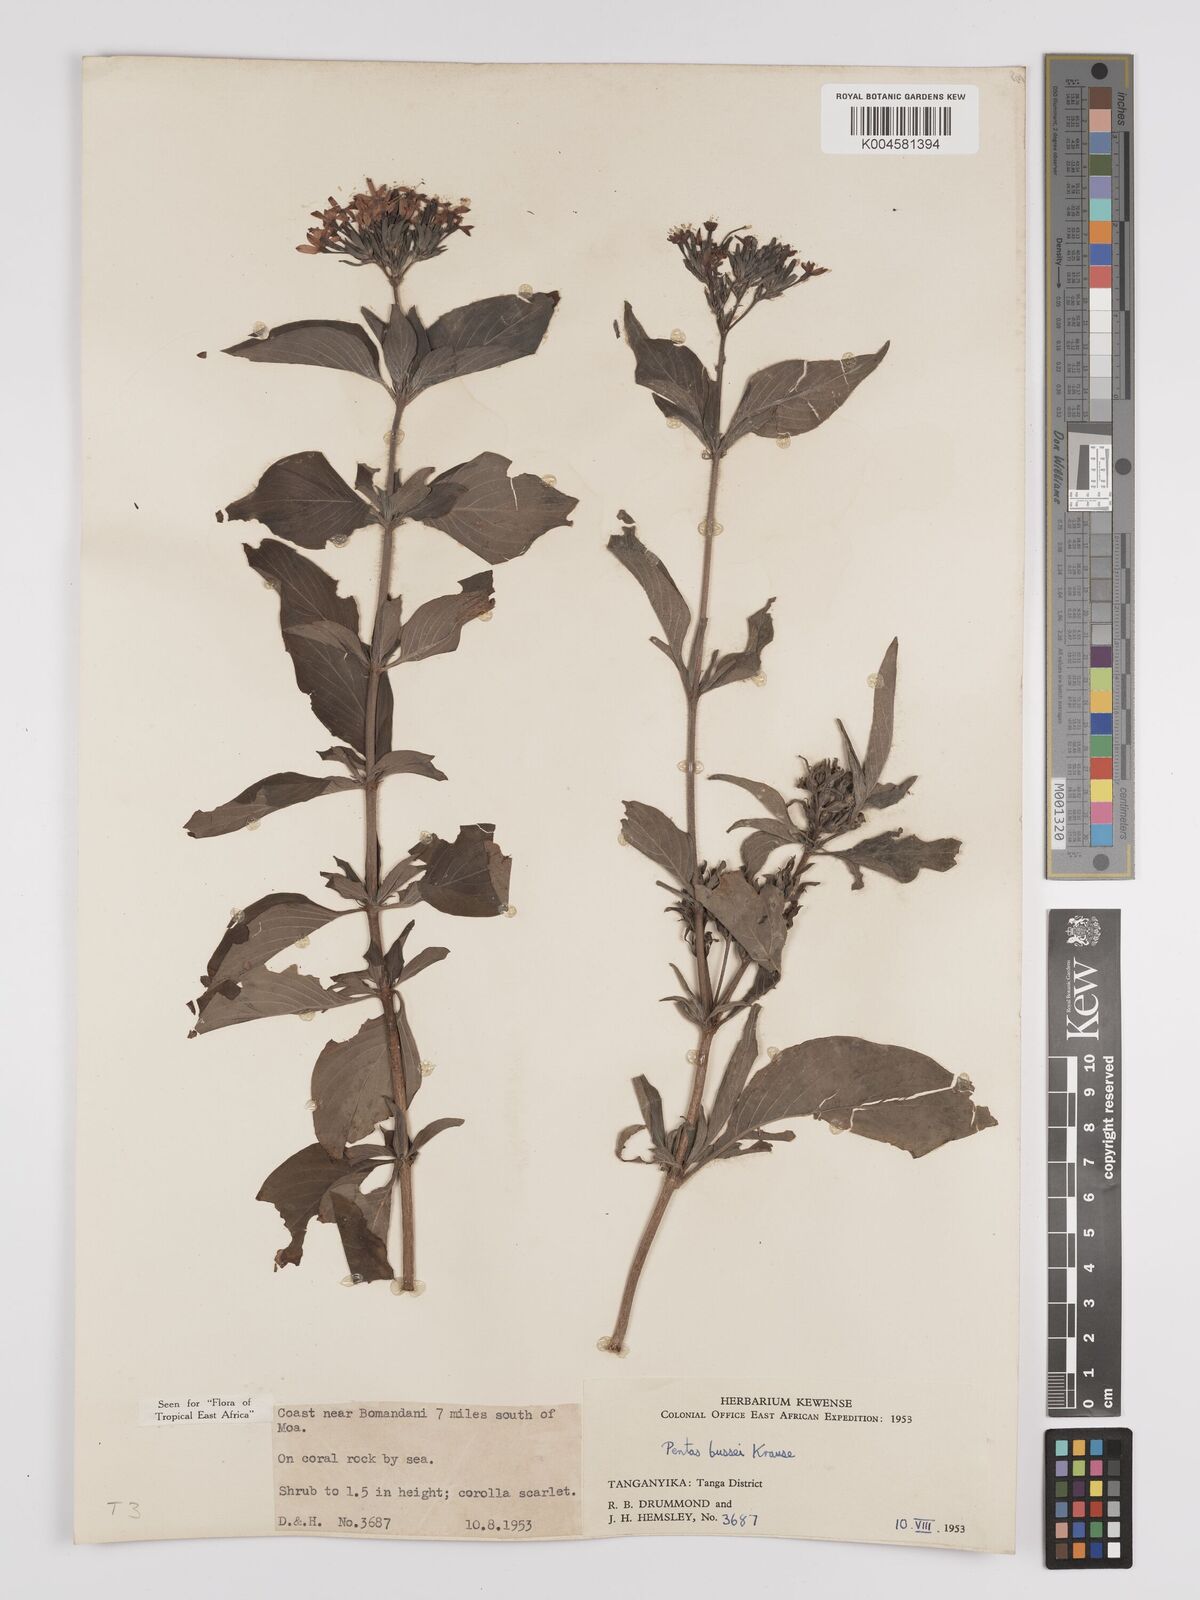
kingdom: Plantae
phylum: Tracheophyta
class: Magnoliopsida
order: Gentianales
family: Rubiaceae
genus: Rhodopentas
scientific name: Rhodopentas bussei
